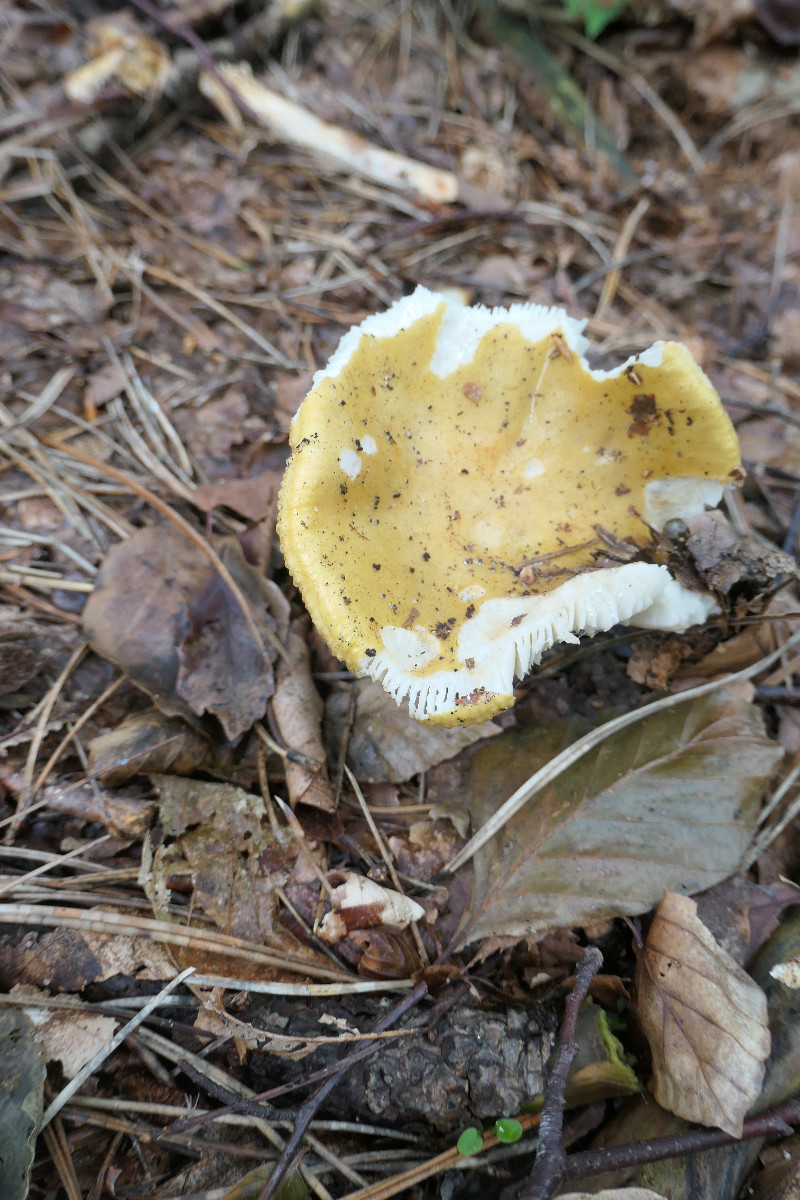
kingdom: Fungi
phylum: Basidiomycota
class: Agaricomycetes
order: Russulales
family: Russulaceae
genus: Russula
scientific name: Russula ochroleuca
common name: okkergul skørhat
